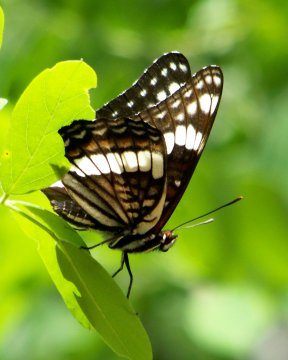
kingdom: Animalia
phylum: Arthropoda
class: Insecta
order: Lepidoptera
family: Nymphalidae
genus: Limenitis
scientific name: Limenitis weidemeyerii
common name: Weidemeyer's Admiral
